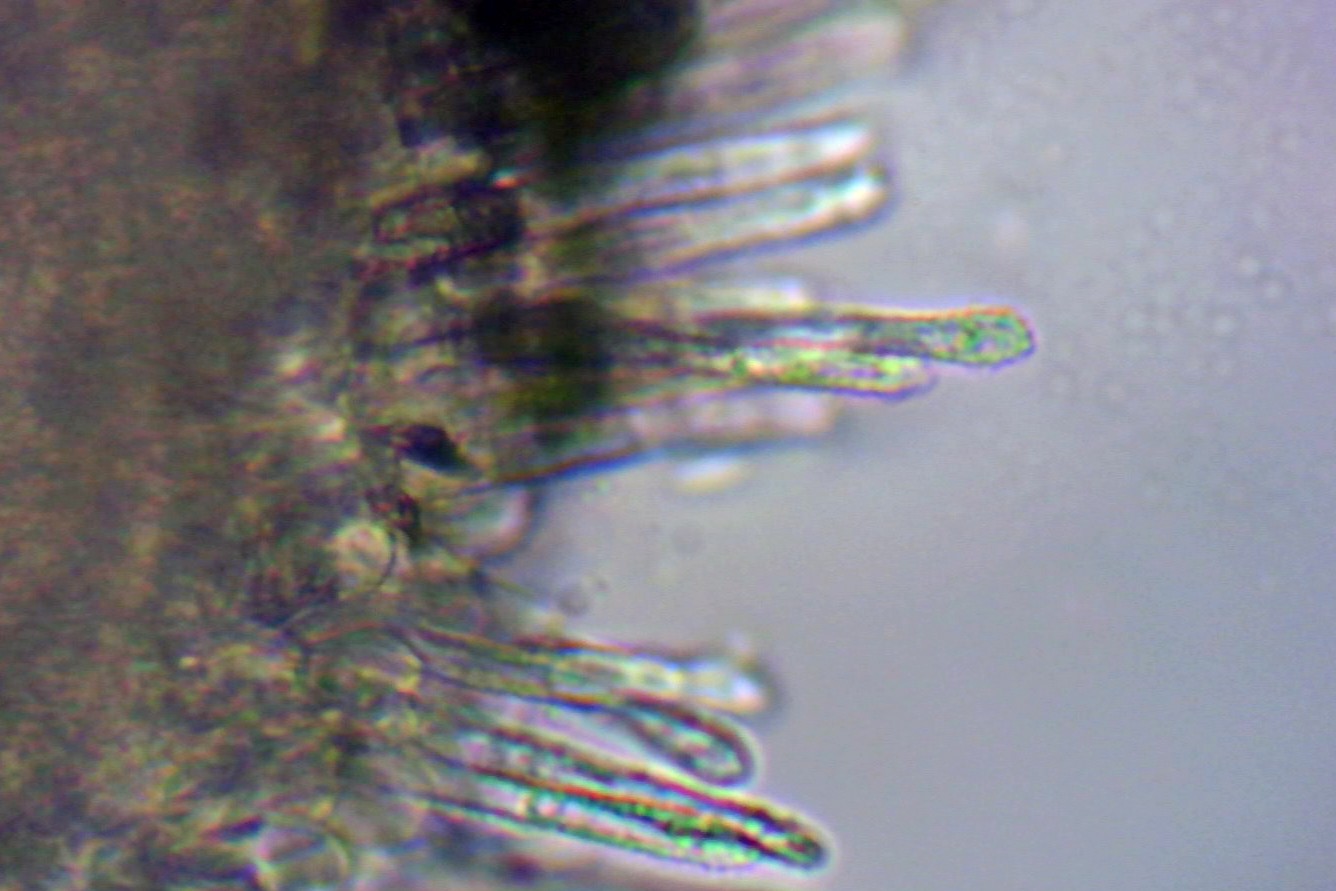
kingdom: Fungi
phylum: Ascomycota
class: Leotiomycetes
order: Helotiales
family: Lachnaceae
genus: Lachnum
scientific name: Lachnum impudicum
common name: vinter-frynseskive
